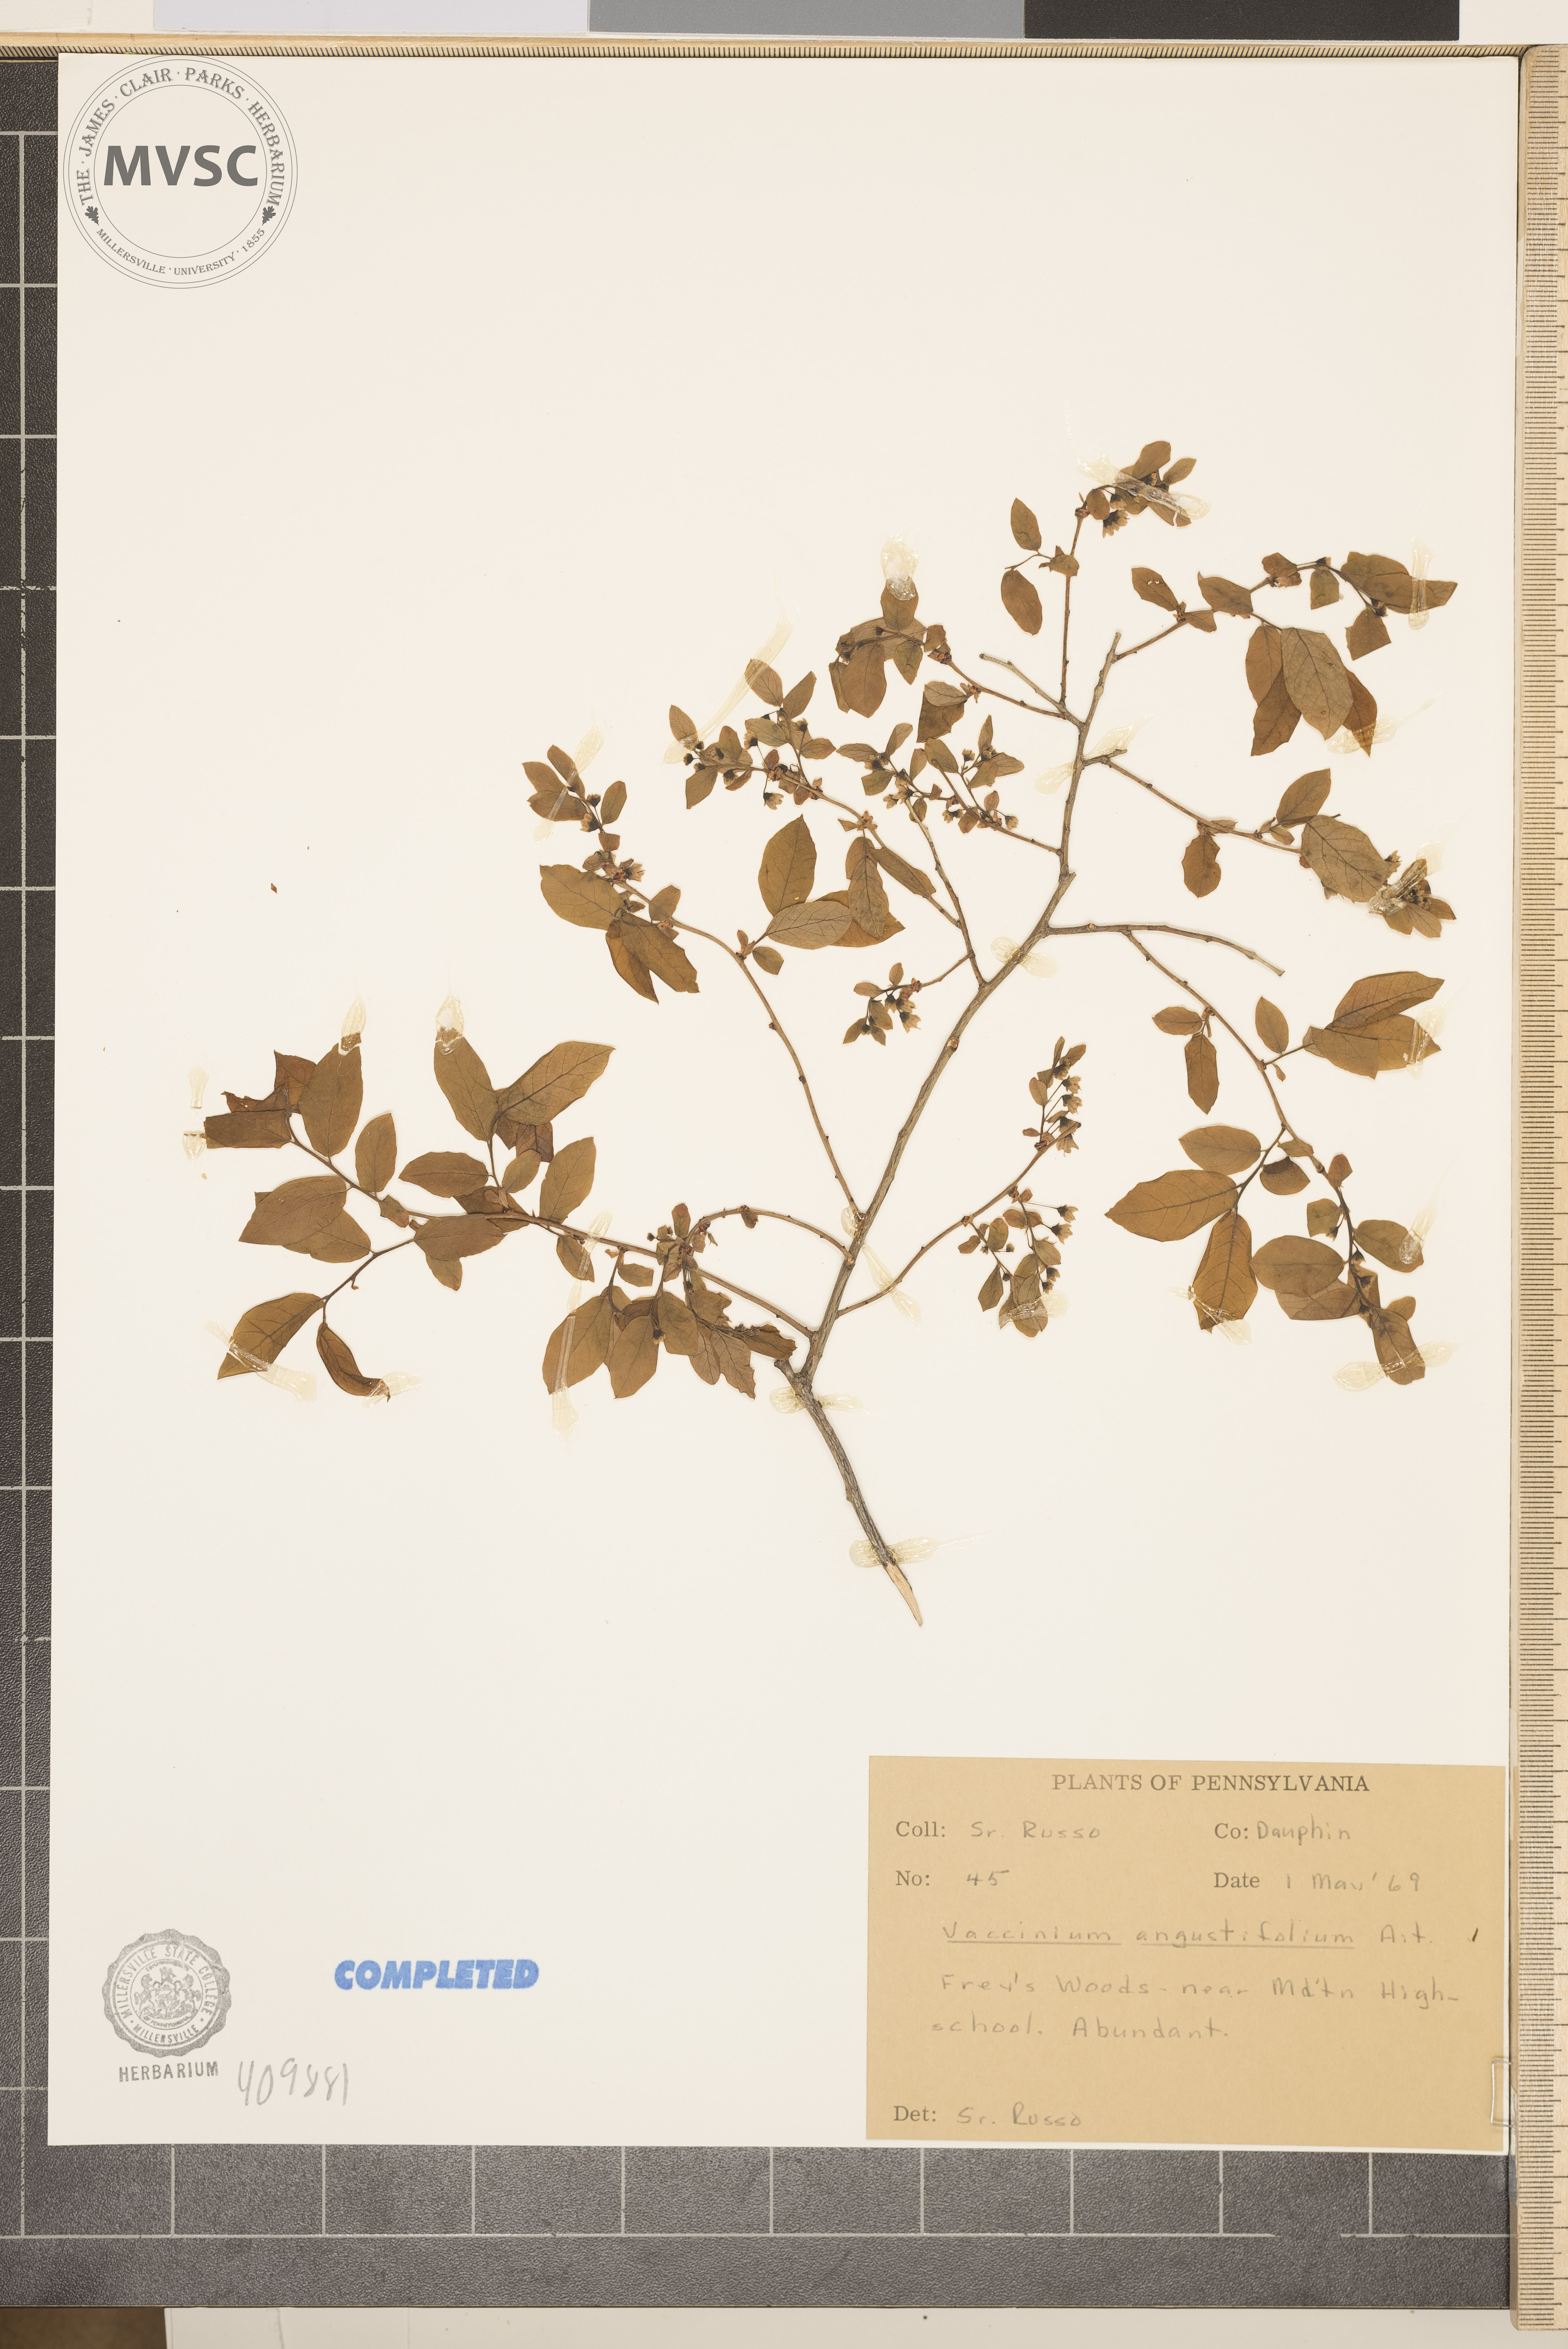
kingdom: Plantae
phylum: Tracheophyta
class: Magnoliopsida
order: Ericales
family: Ericaceae
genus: Vaccinium
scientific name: Vaccinium angustifolium
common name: Early lowbush blueberry
